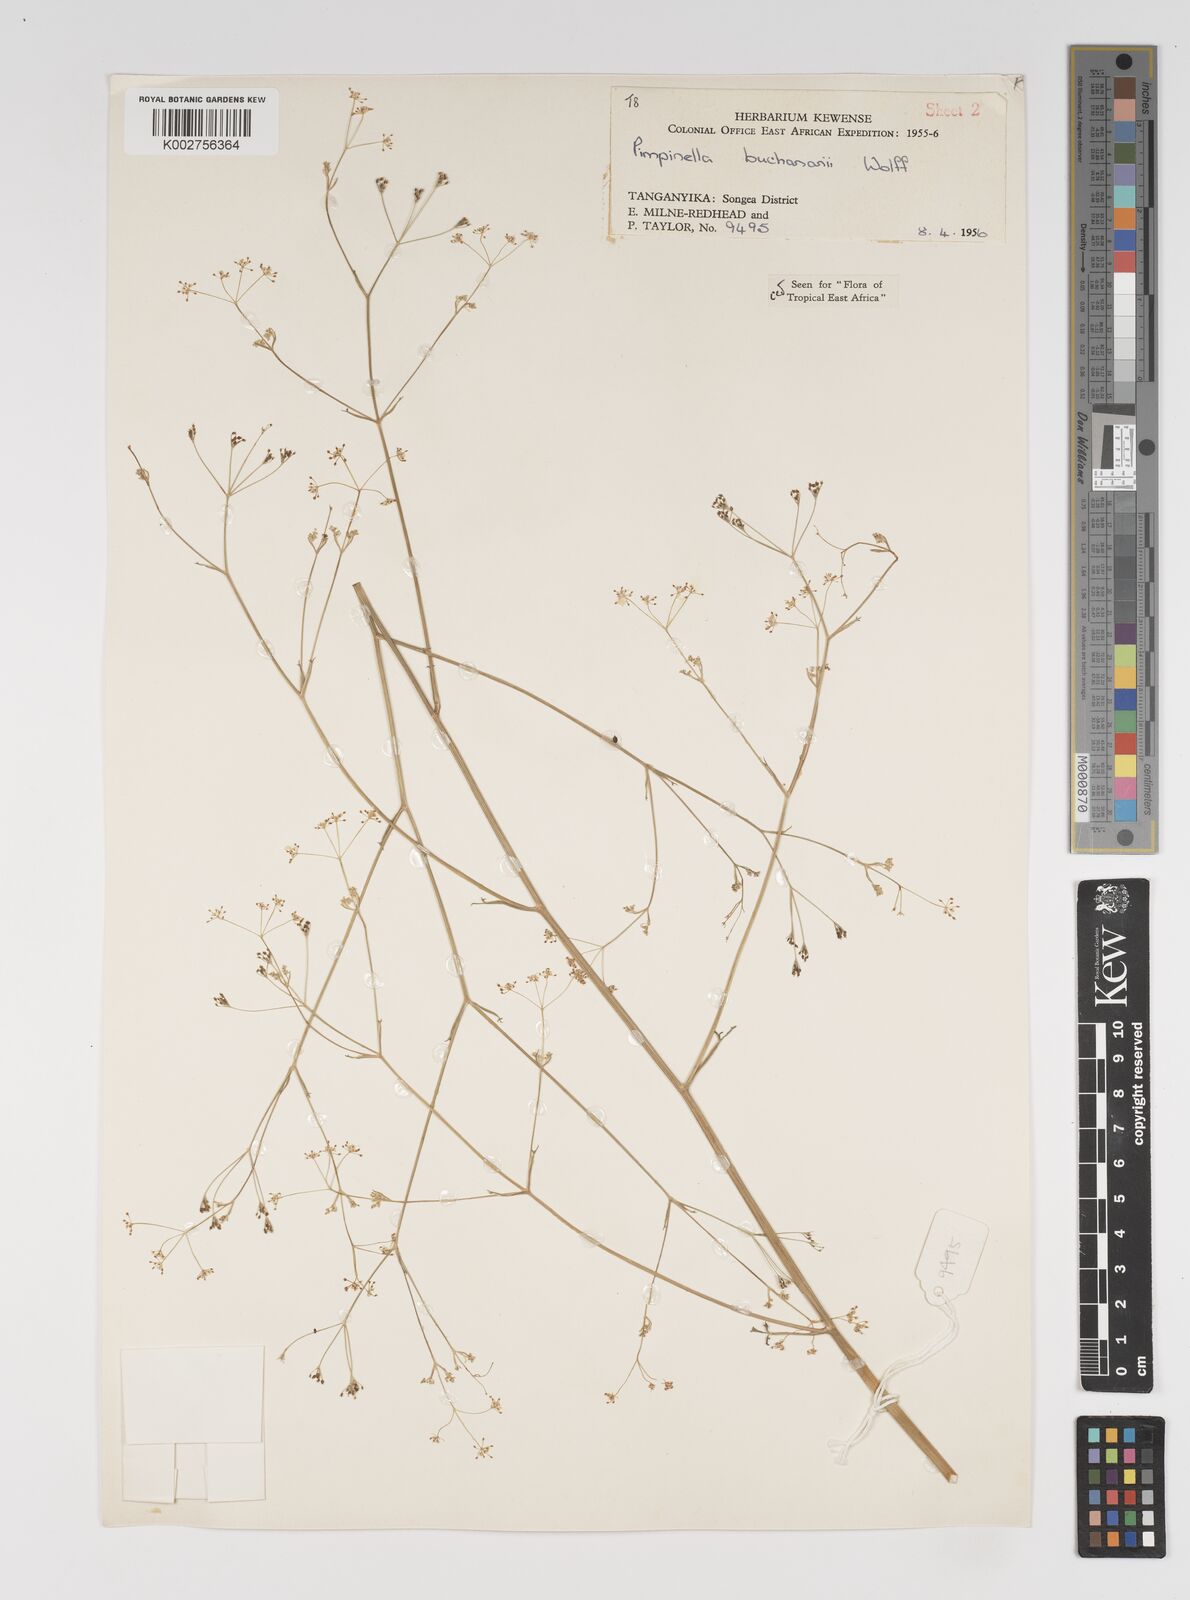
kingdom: Plantae
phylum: Tracheophyta
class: Magnoliopsida
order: Apiales
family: Apiaceae
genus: Pimpinella
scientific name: Pimpinella buchananii
